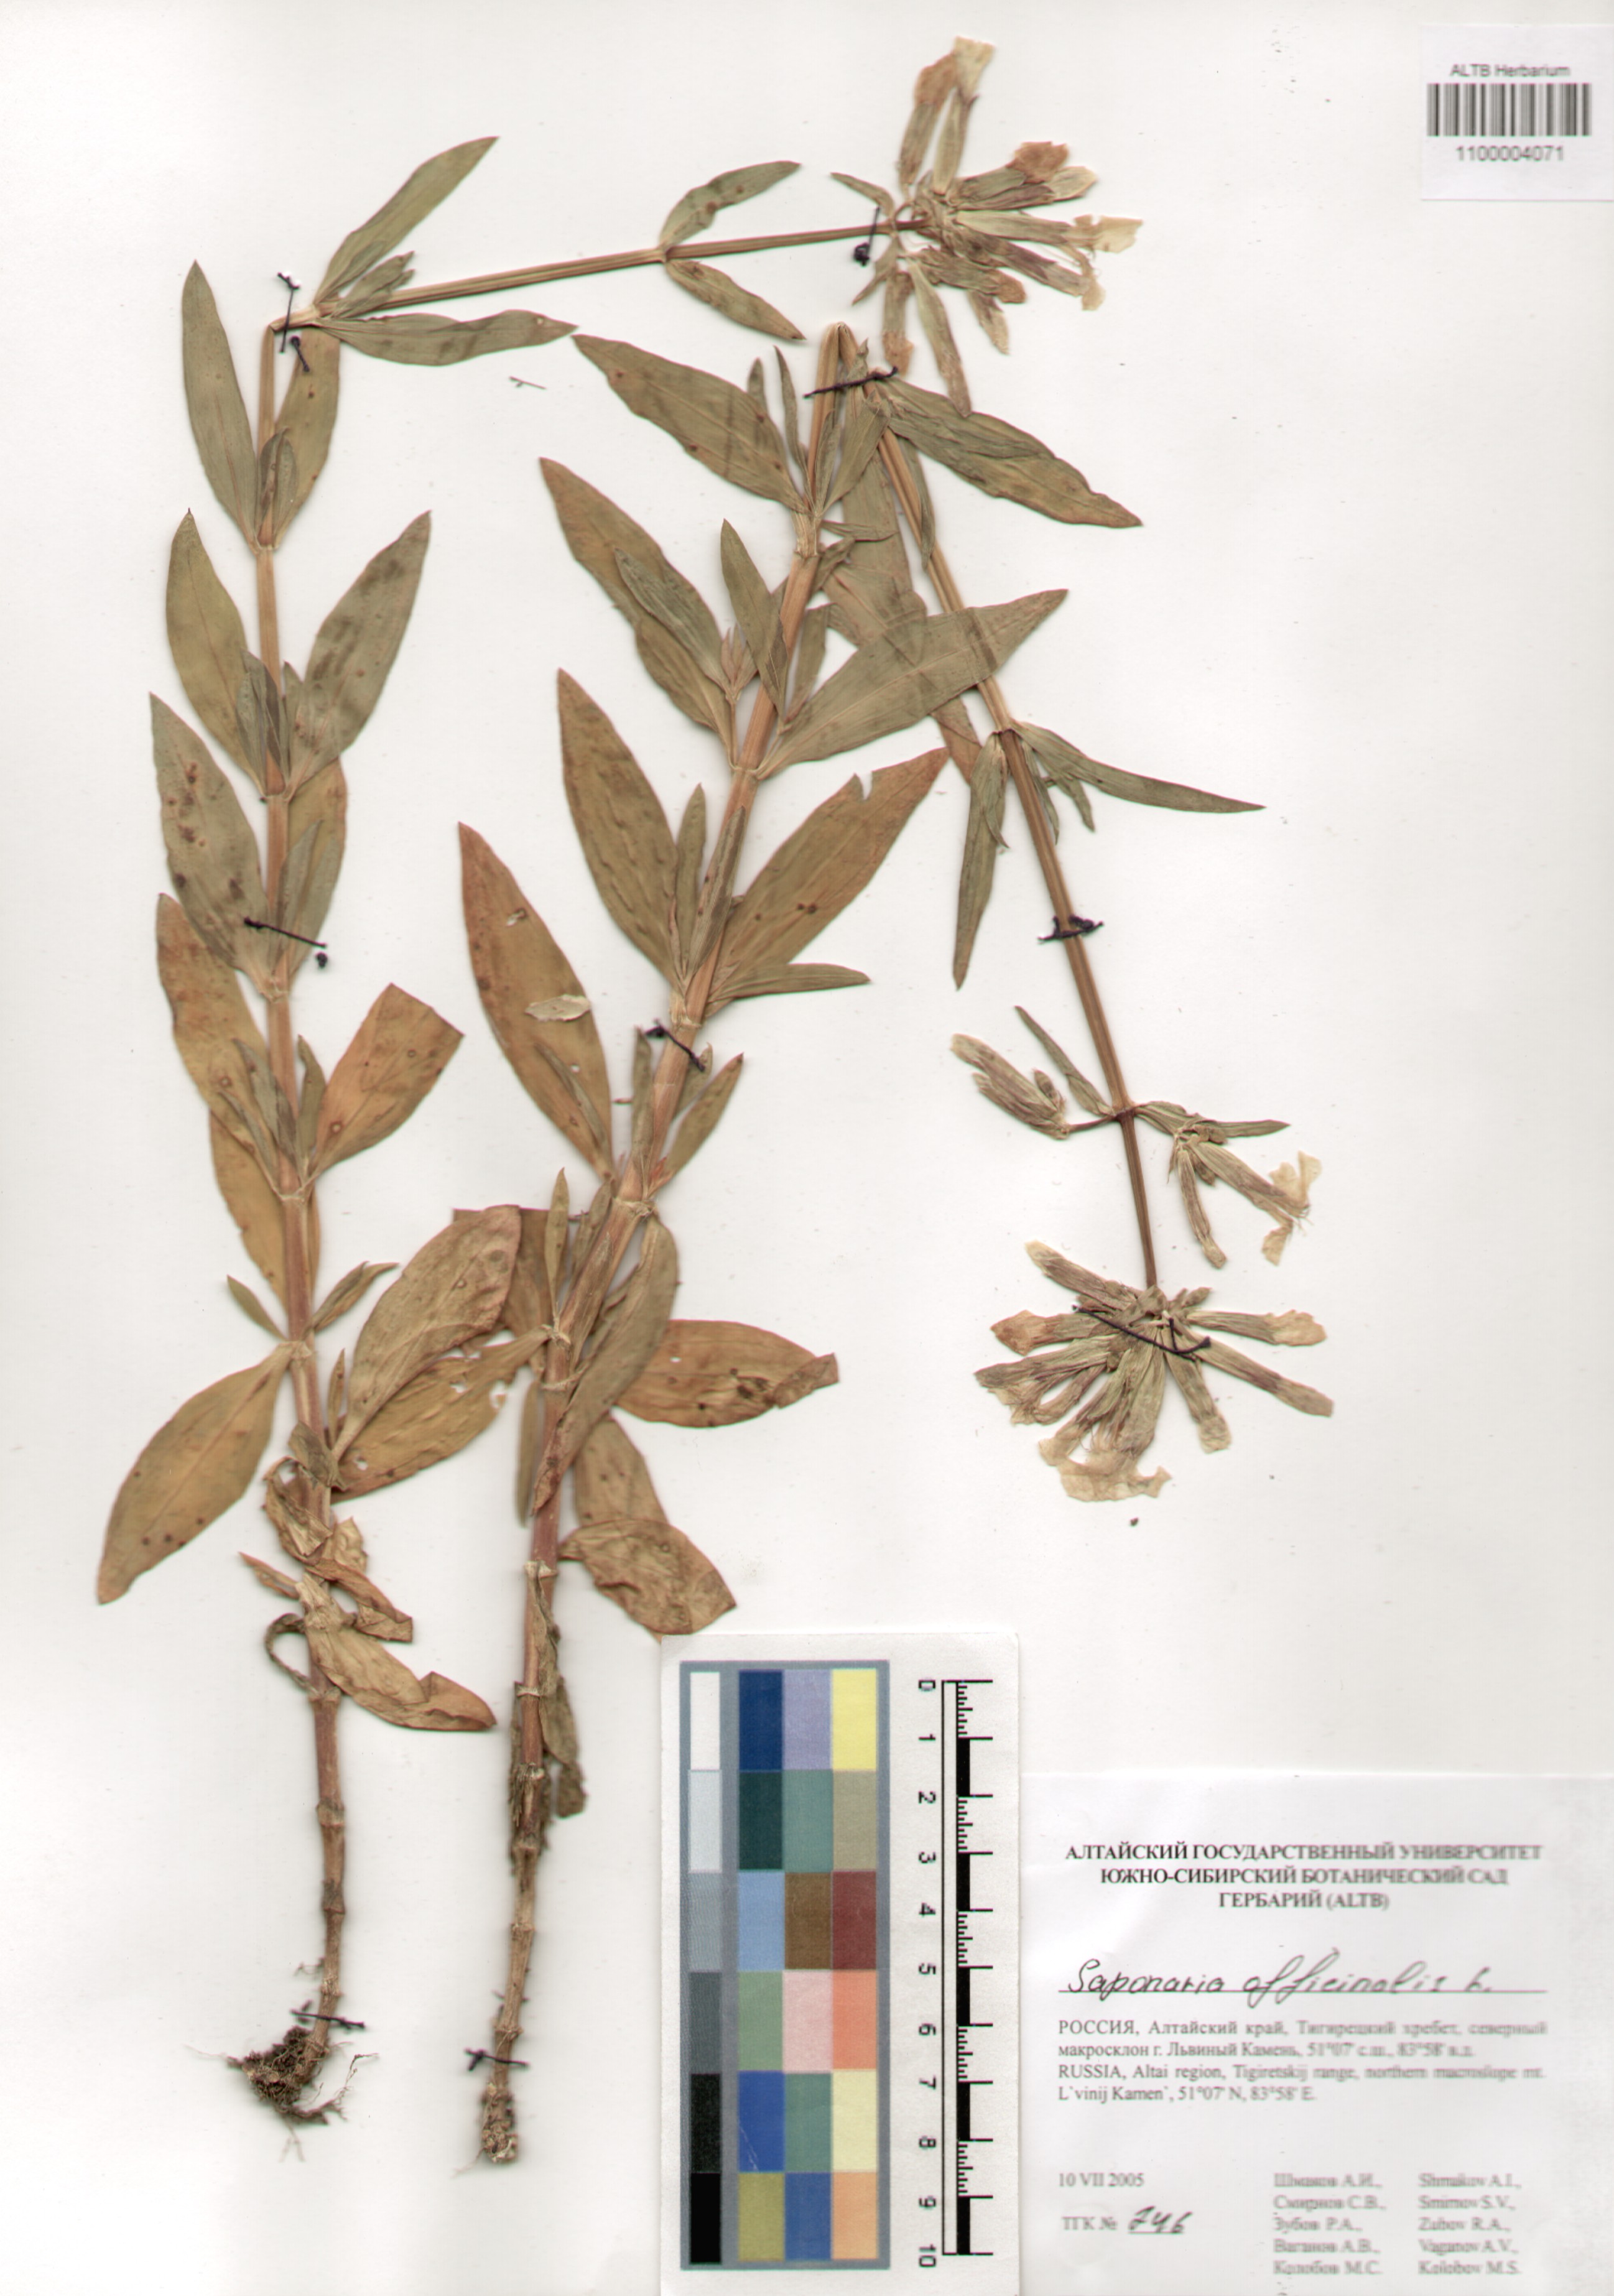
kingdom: Plantae
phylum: Tracheophyta
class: Magnoliopsida
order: Caryophyllales
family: Caryophyllaceae
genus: Saponaria
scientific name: Saponaria officinalis
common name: Soapwort
